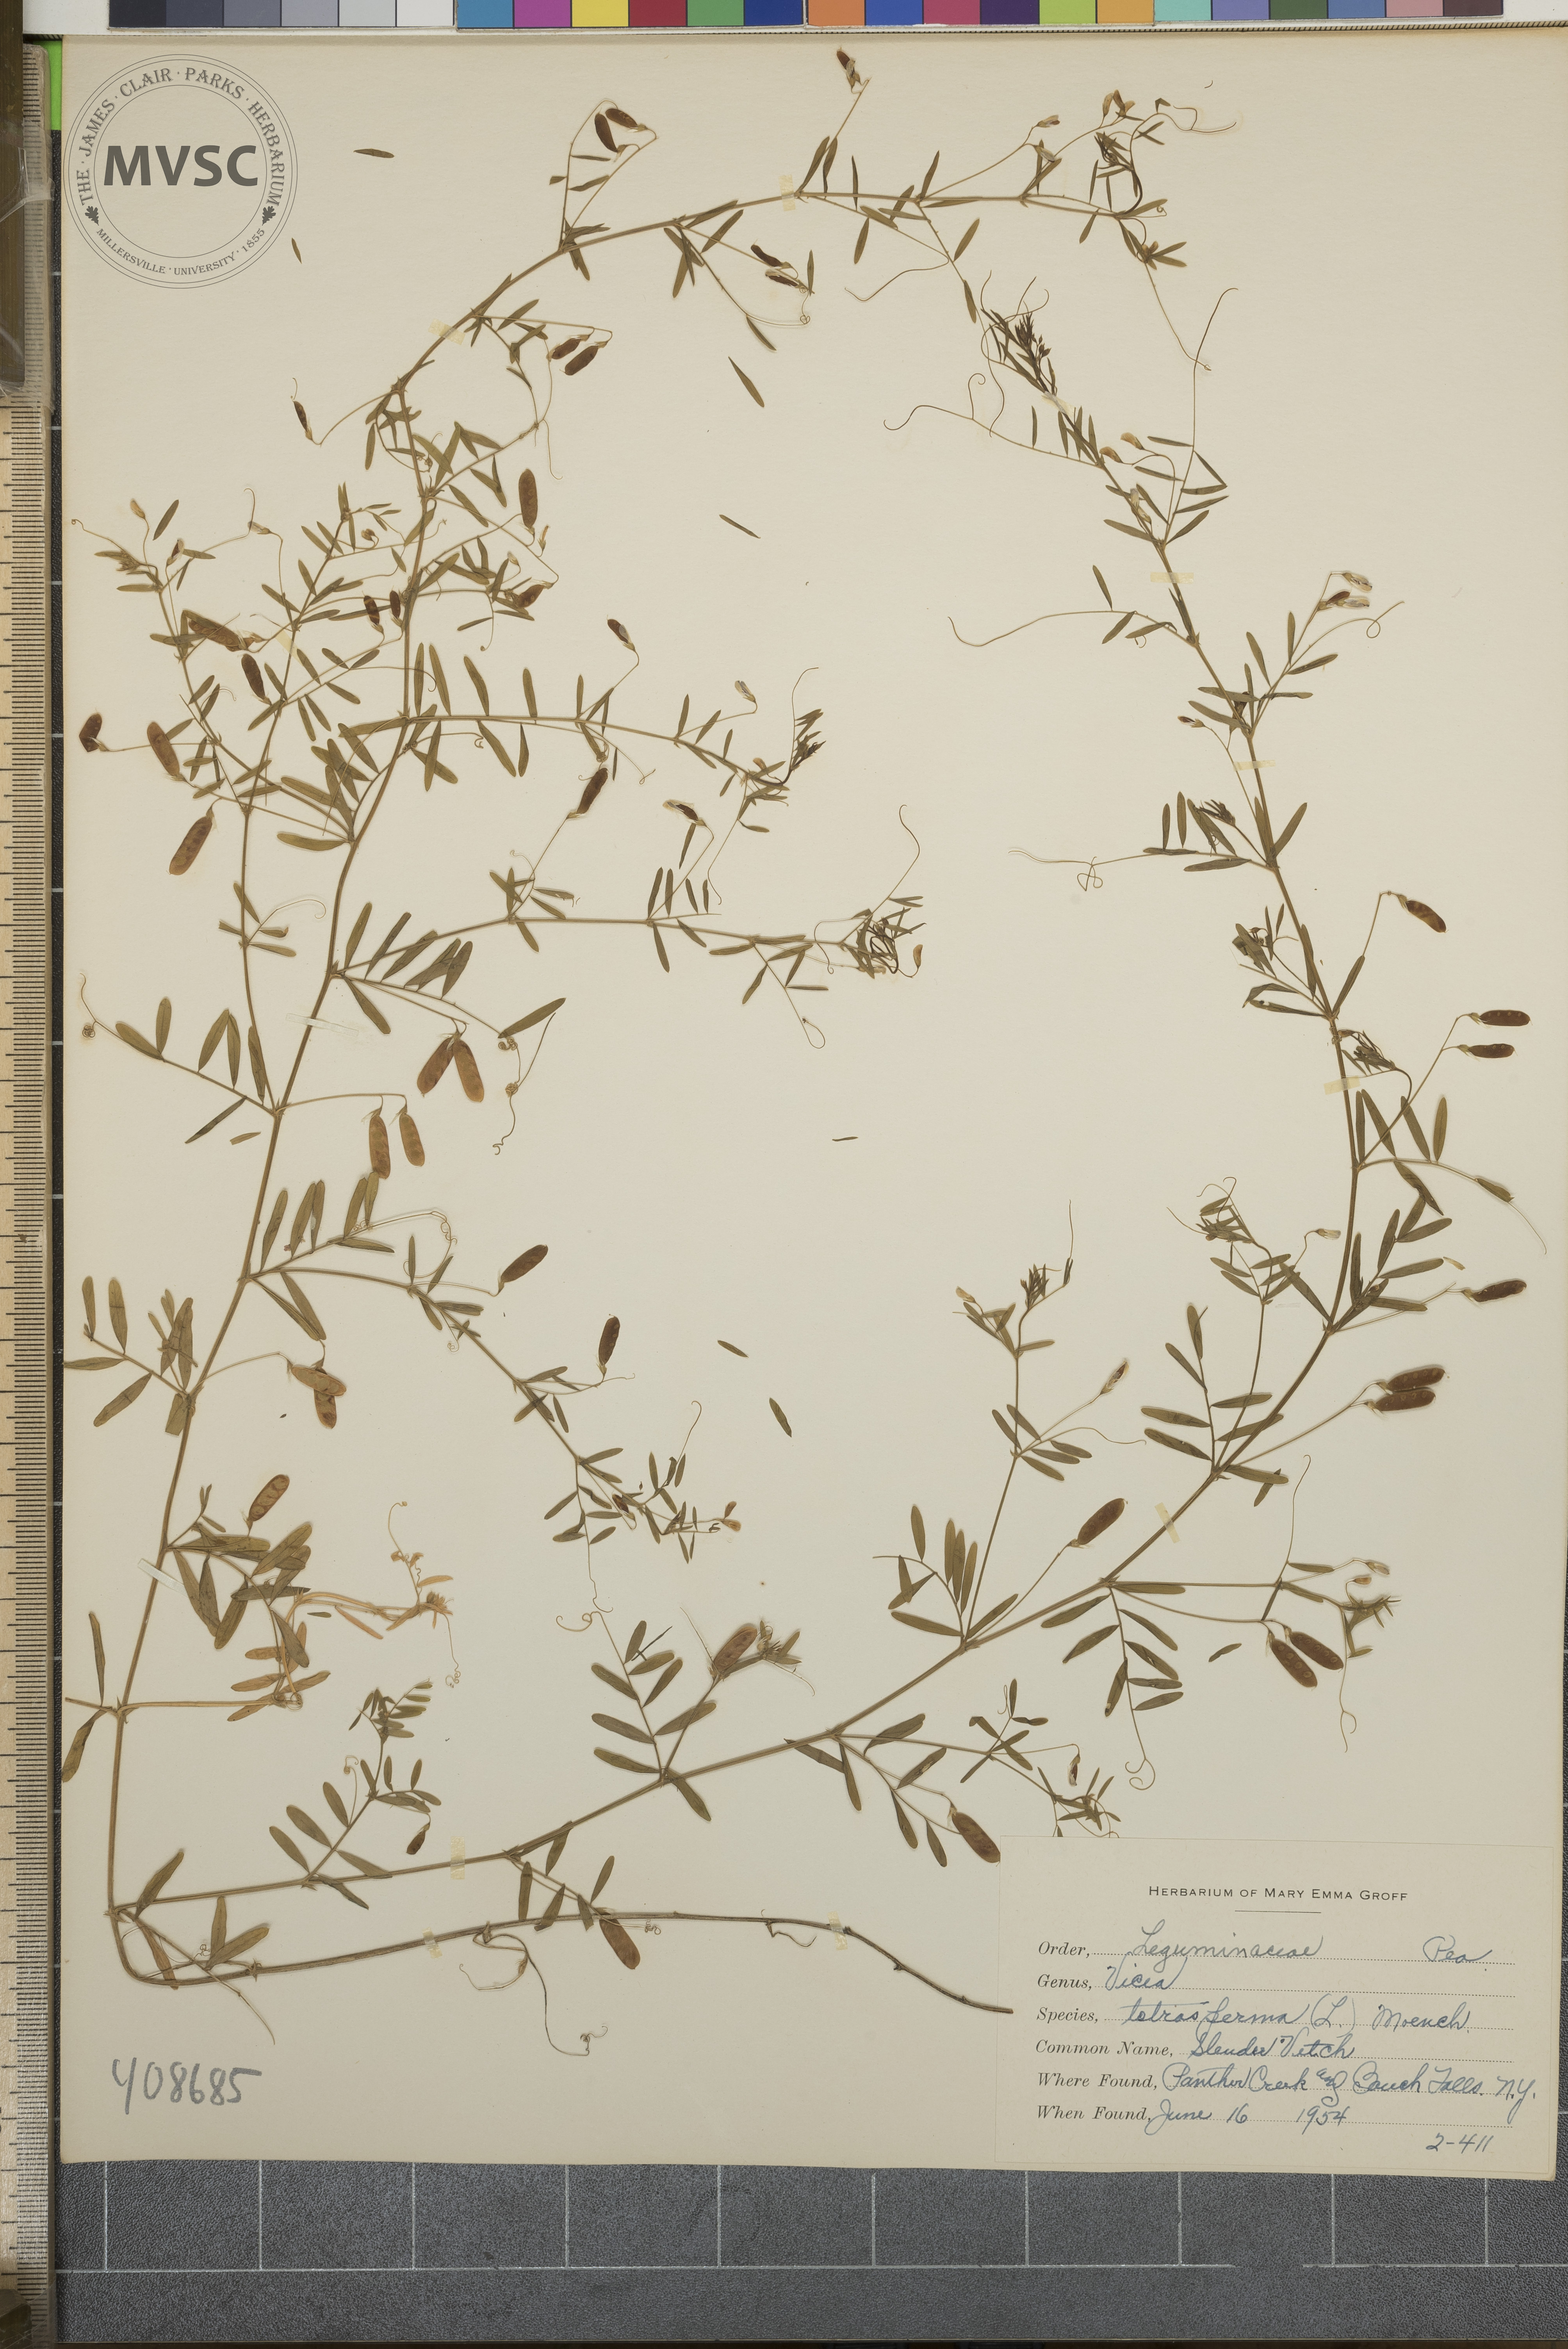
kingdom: Plantae
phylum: Tracheophyta
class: Magnoliopsida
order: Fabales
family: Fabaceae
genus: Vicia
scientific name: Vicia tetrasperma
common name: Slender Vetch
